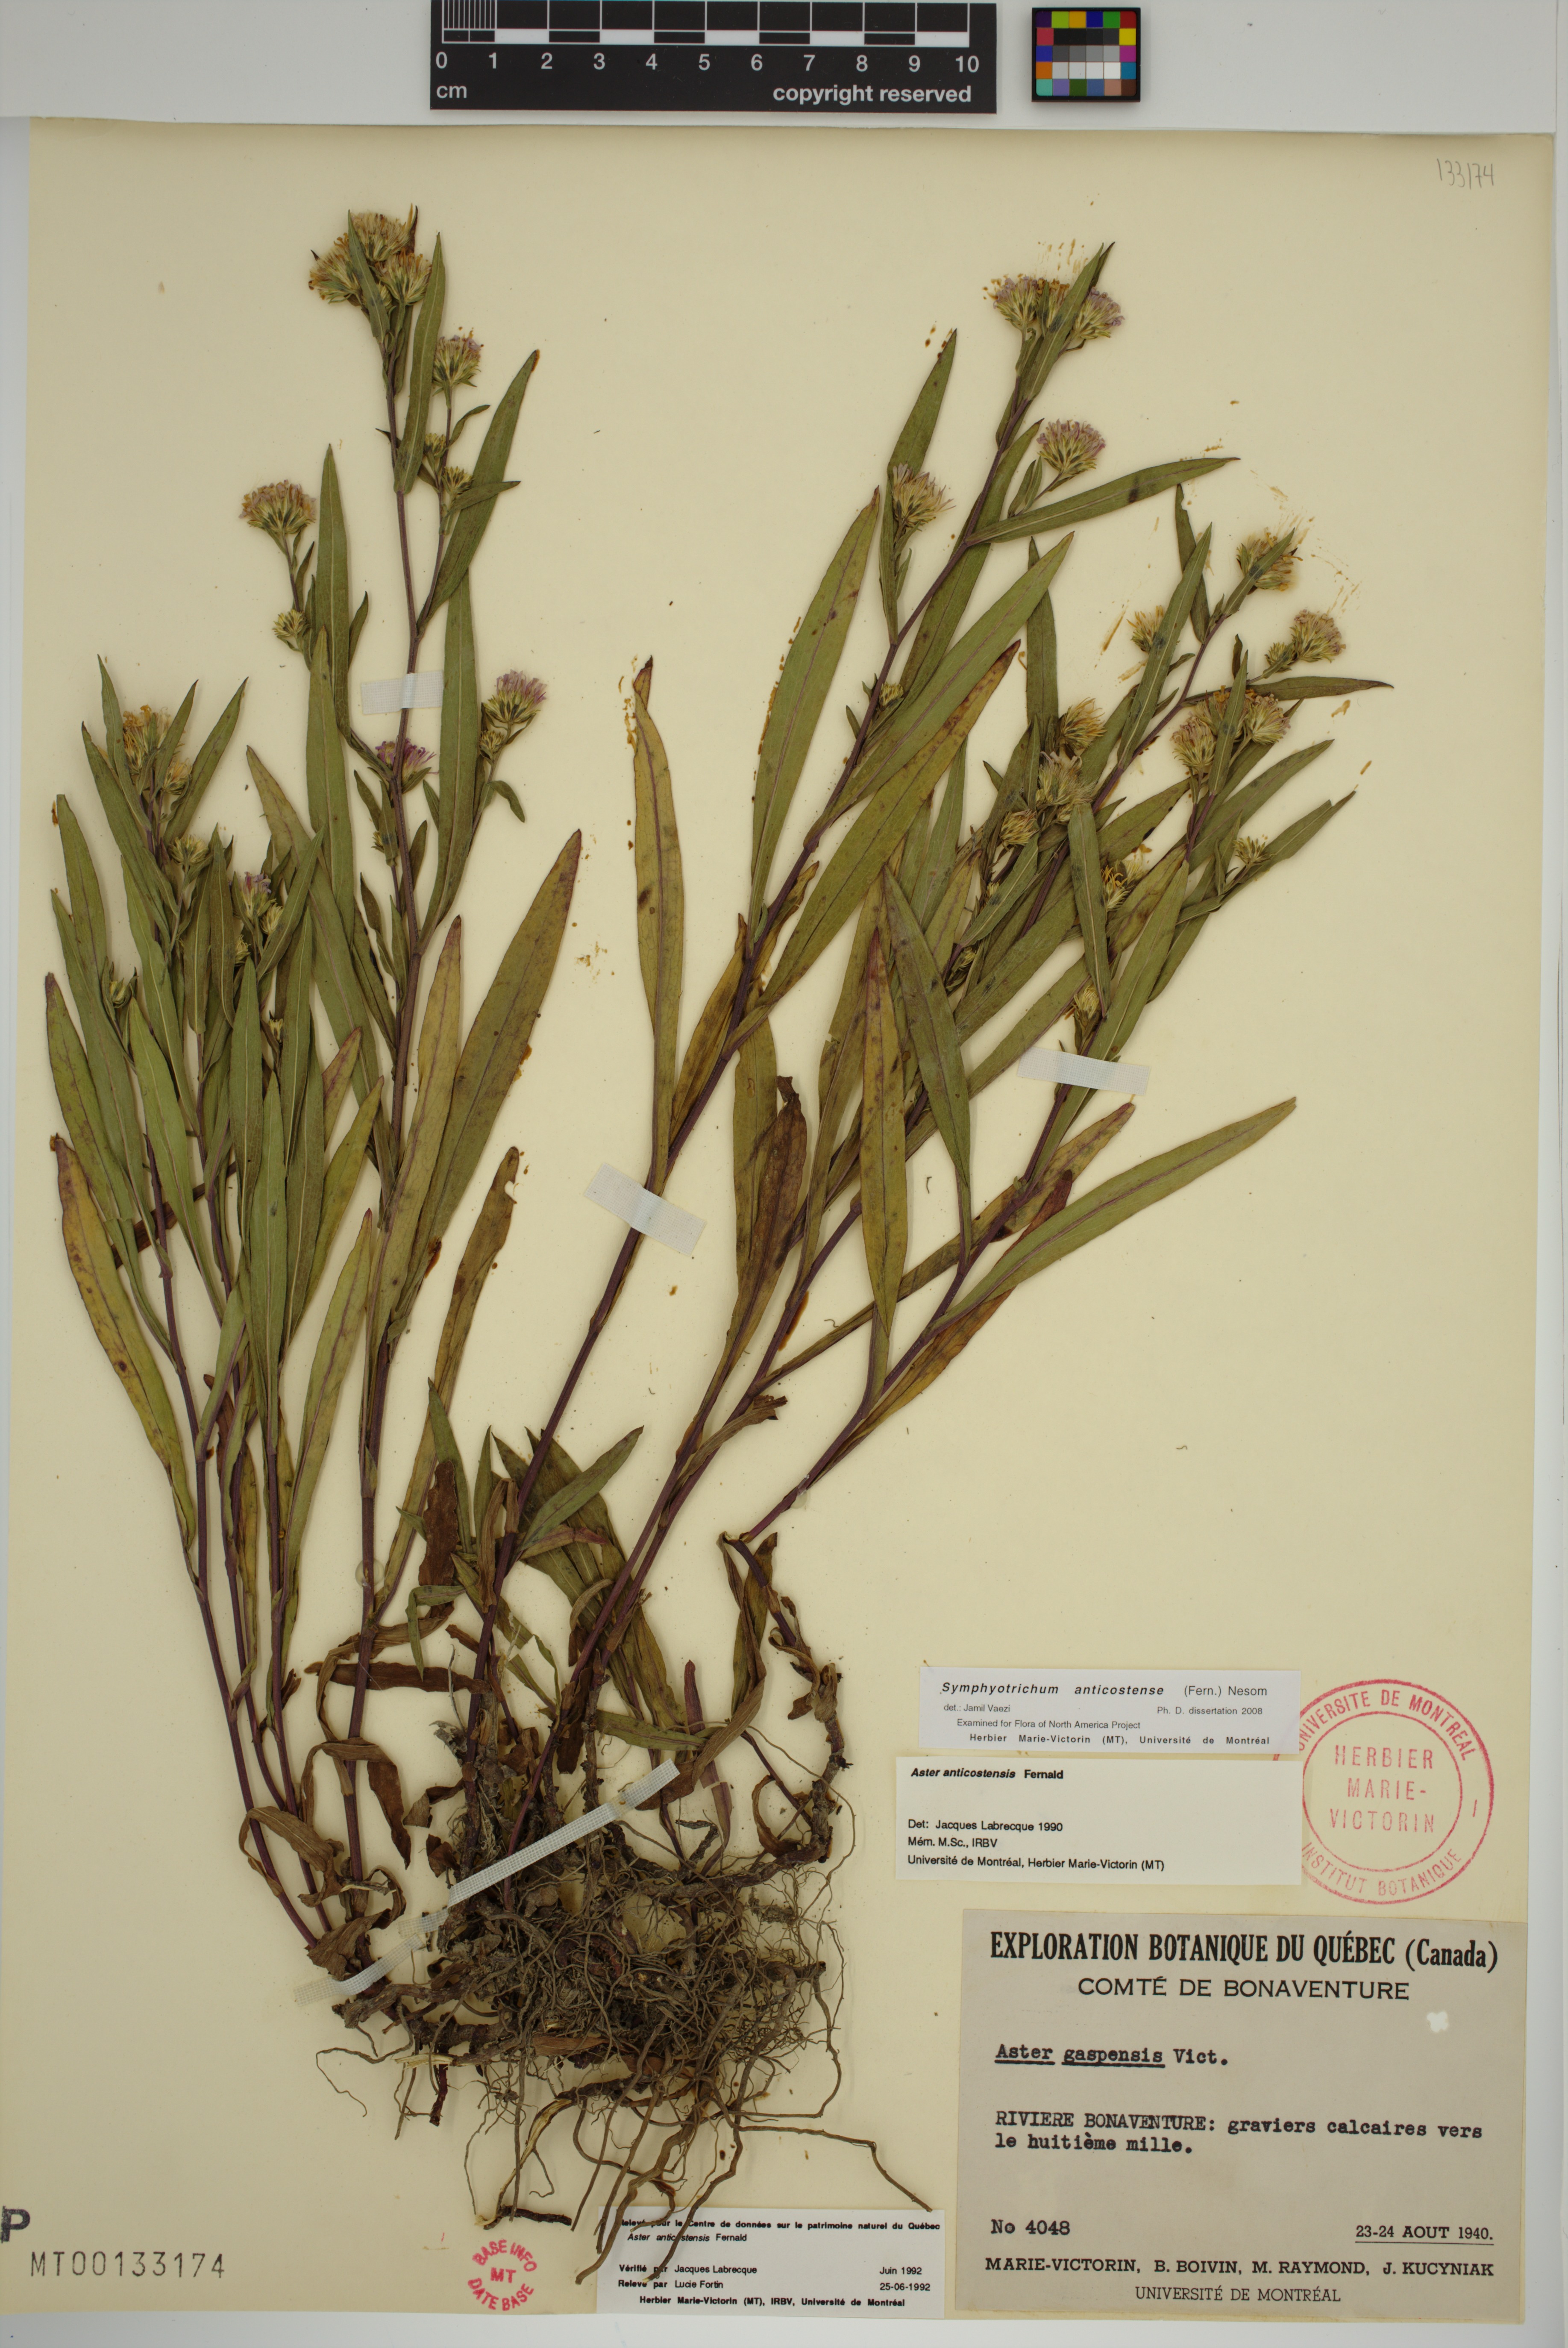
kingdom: Plantae
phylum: Tracheophyta
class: Magnoliopsida
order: Asterales
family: Asteraceae
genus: Symphyotrichum
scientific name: Symphyotrichum anticostense
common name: Anticosti island aster
